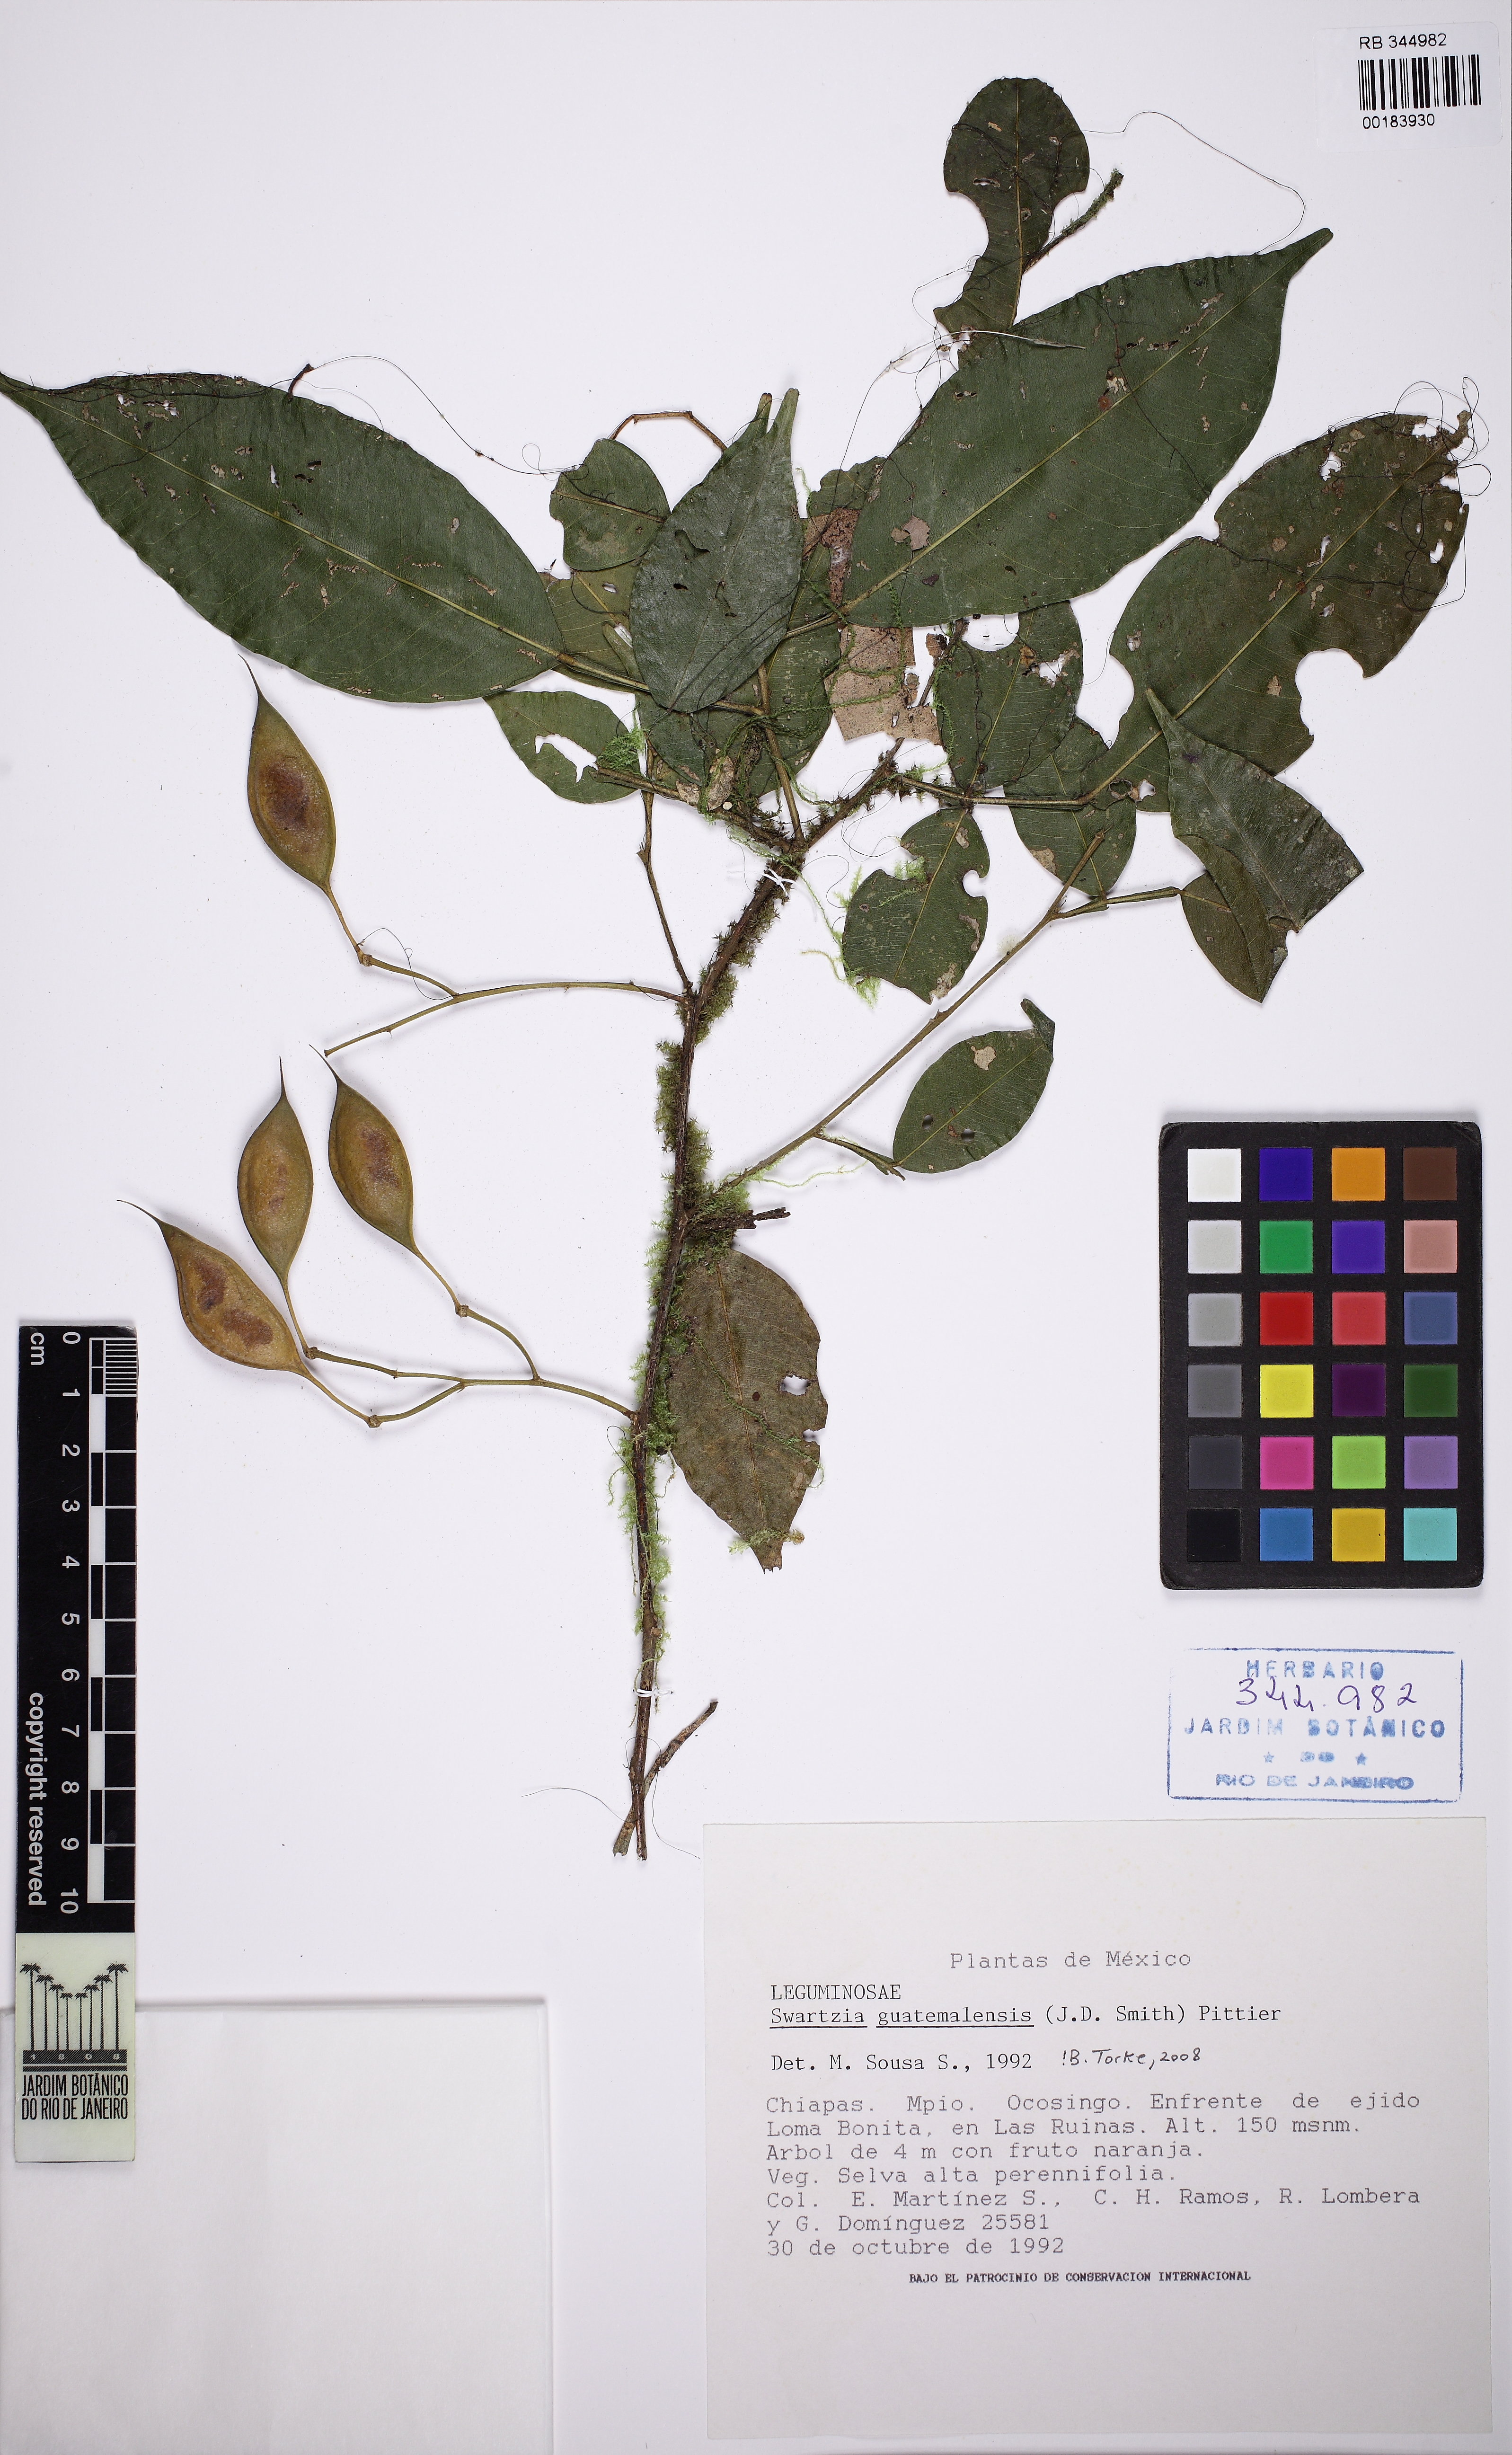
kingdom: Plantae
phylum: Tracheophyta
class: Magnoliopsida
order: Fabales
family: Fabaceae
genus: Swartzia
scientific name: Swartzia guatemalensis
